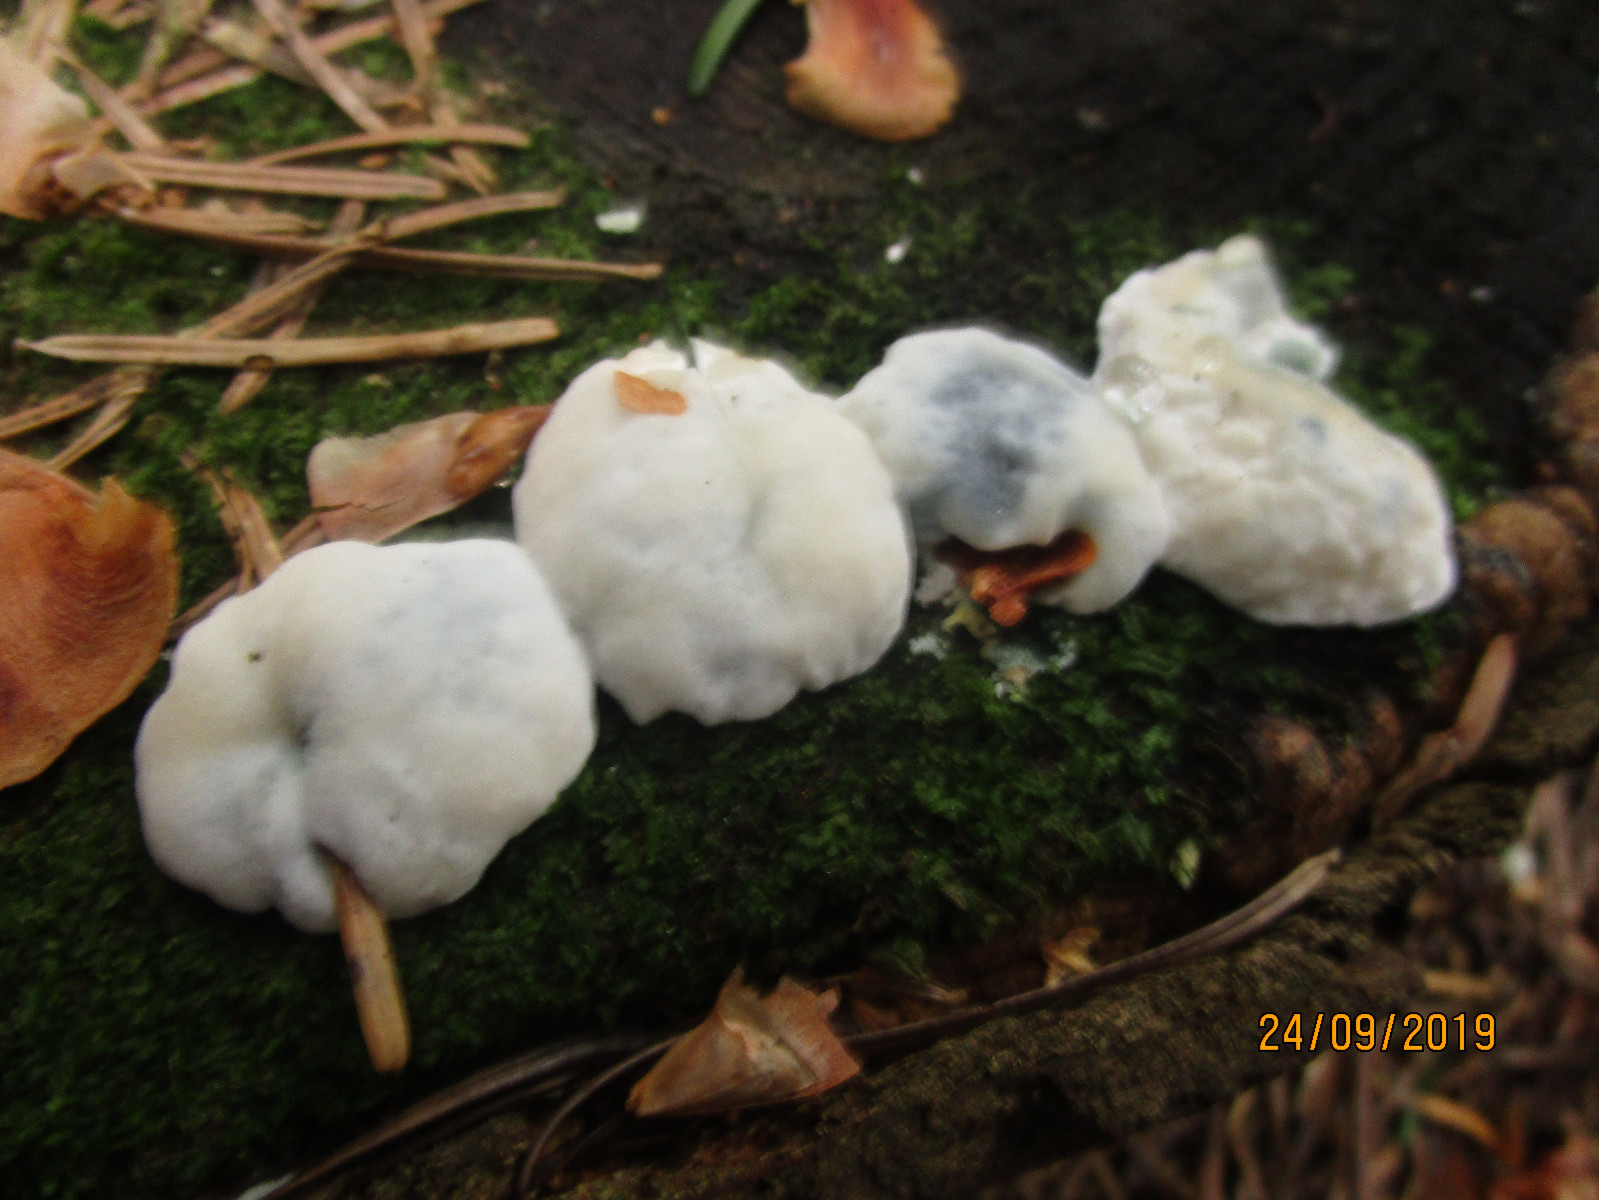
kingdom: Fungi
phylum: Basidiomycota
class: Agaricomycetes
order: Polyporales
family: Polyporaceae
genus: Cyanosporus
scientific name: Cyanosporus caesius
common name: blålig kødporesvamp
